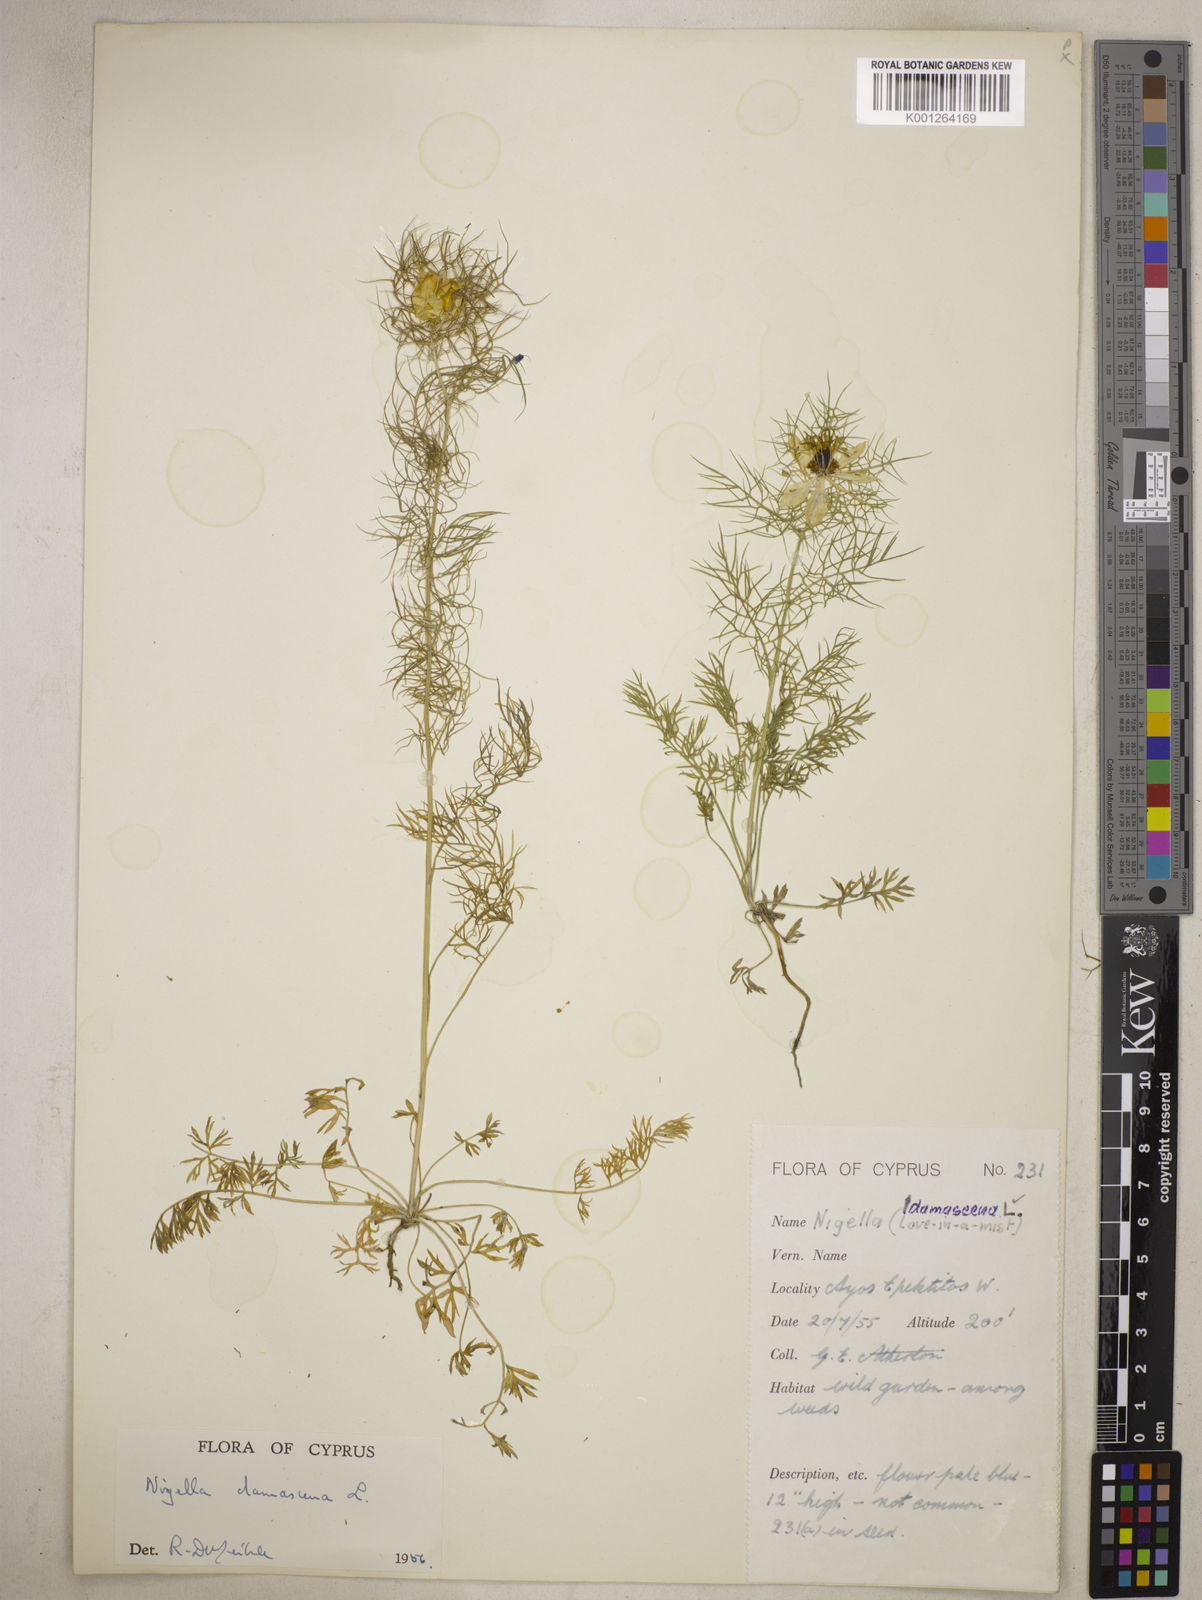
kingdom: Plantae
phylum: Tracheophyta
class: Magnoliopsida
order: Ranunculales
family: Ranunculaceae
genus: Nigella
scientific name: Nigella damascena
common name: Love-in-a-mist
